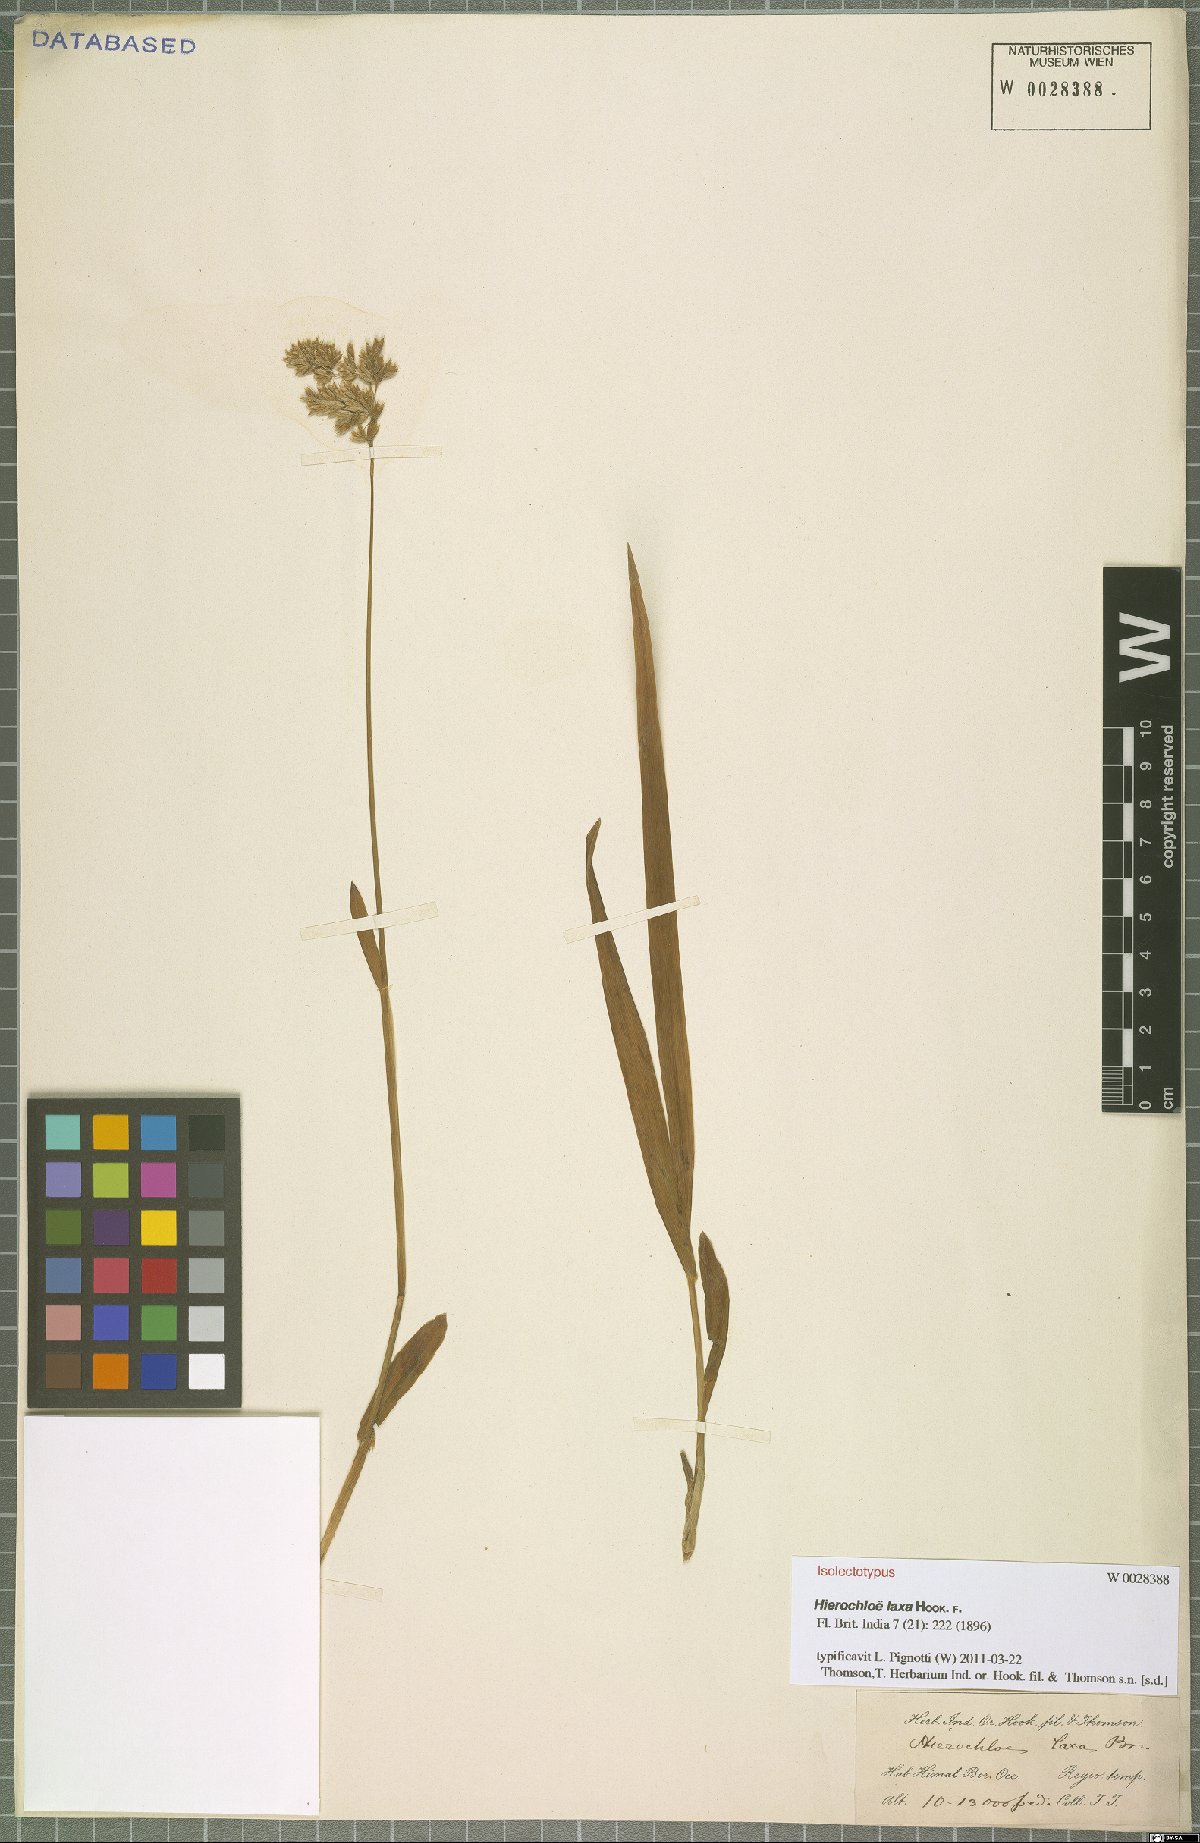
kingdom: Plantae
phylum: Tracheophyta
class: Liliopsida
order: Poales
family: Poaceae
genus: Anthoxanthum
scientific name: Anthoxanthum laxum
